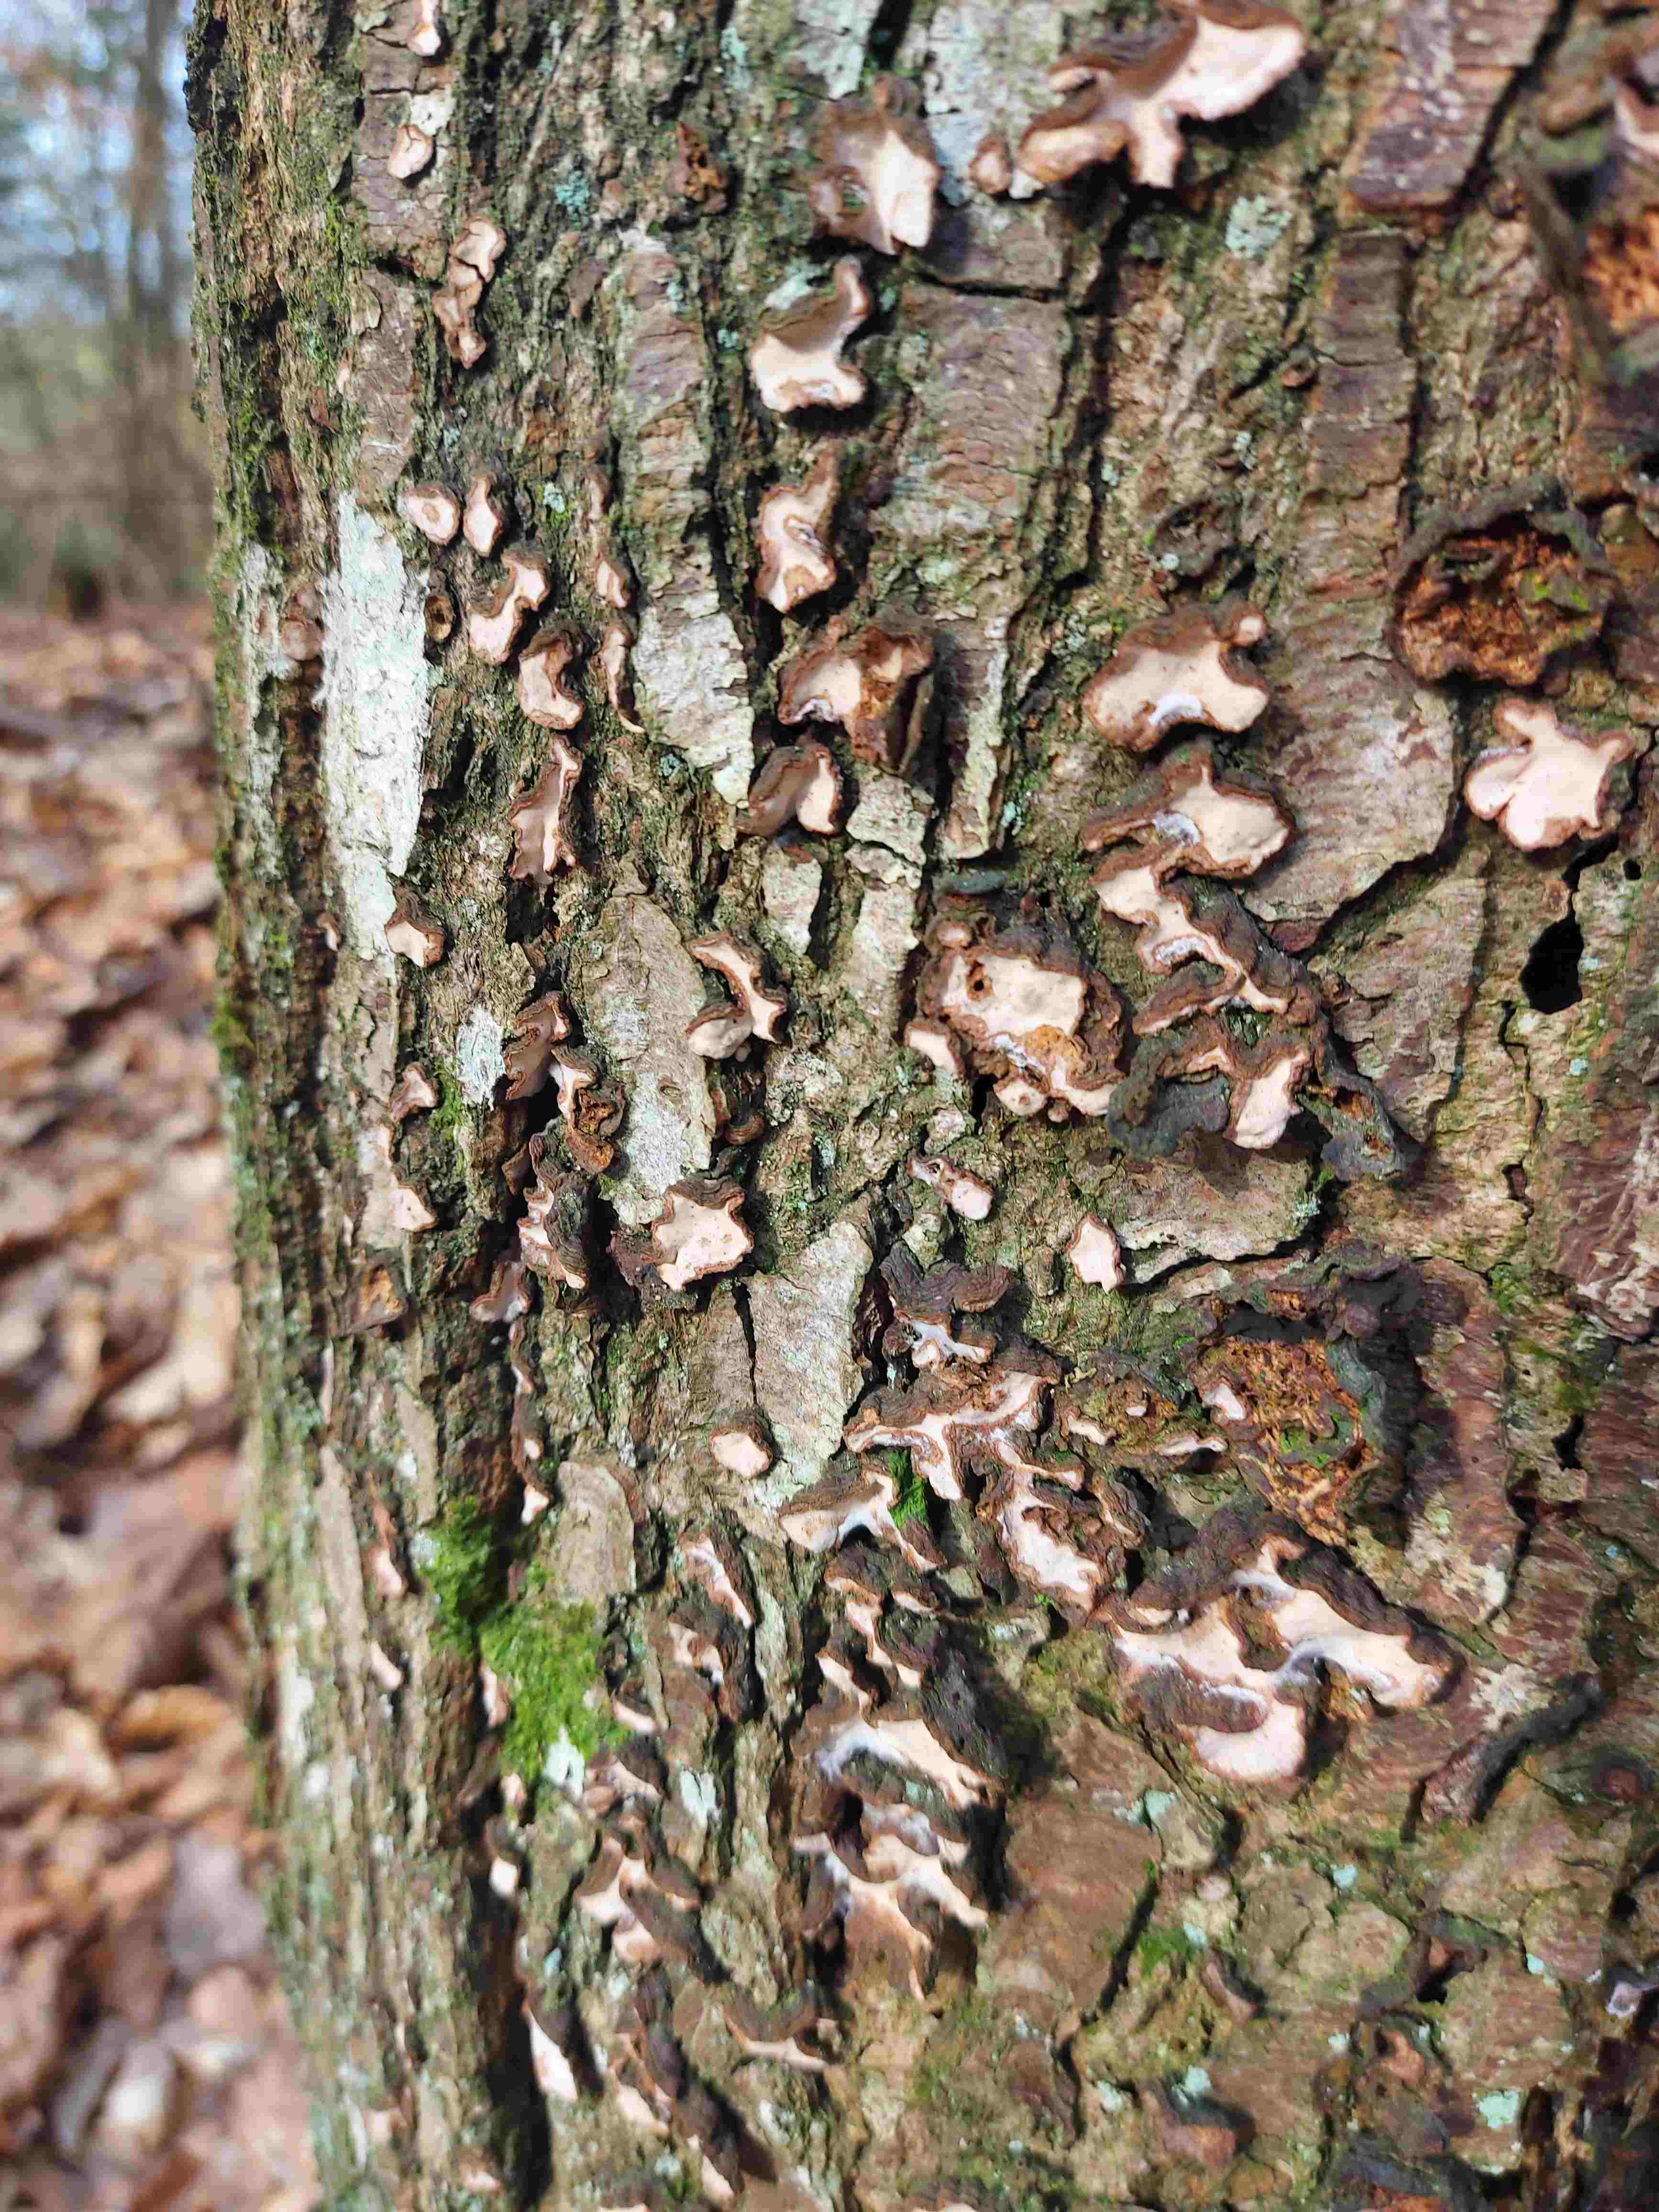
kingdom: Fungi
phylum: Basidiomycota
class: Agaricomycetes
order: Russulales
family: Stereaceae
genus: Stereum
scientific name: Stereum rugosum
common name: rynket lædersvamp
